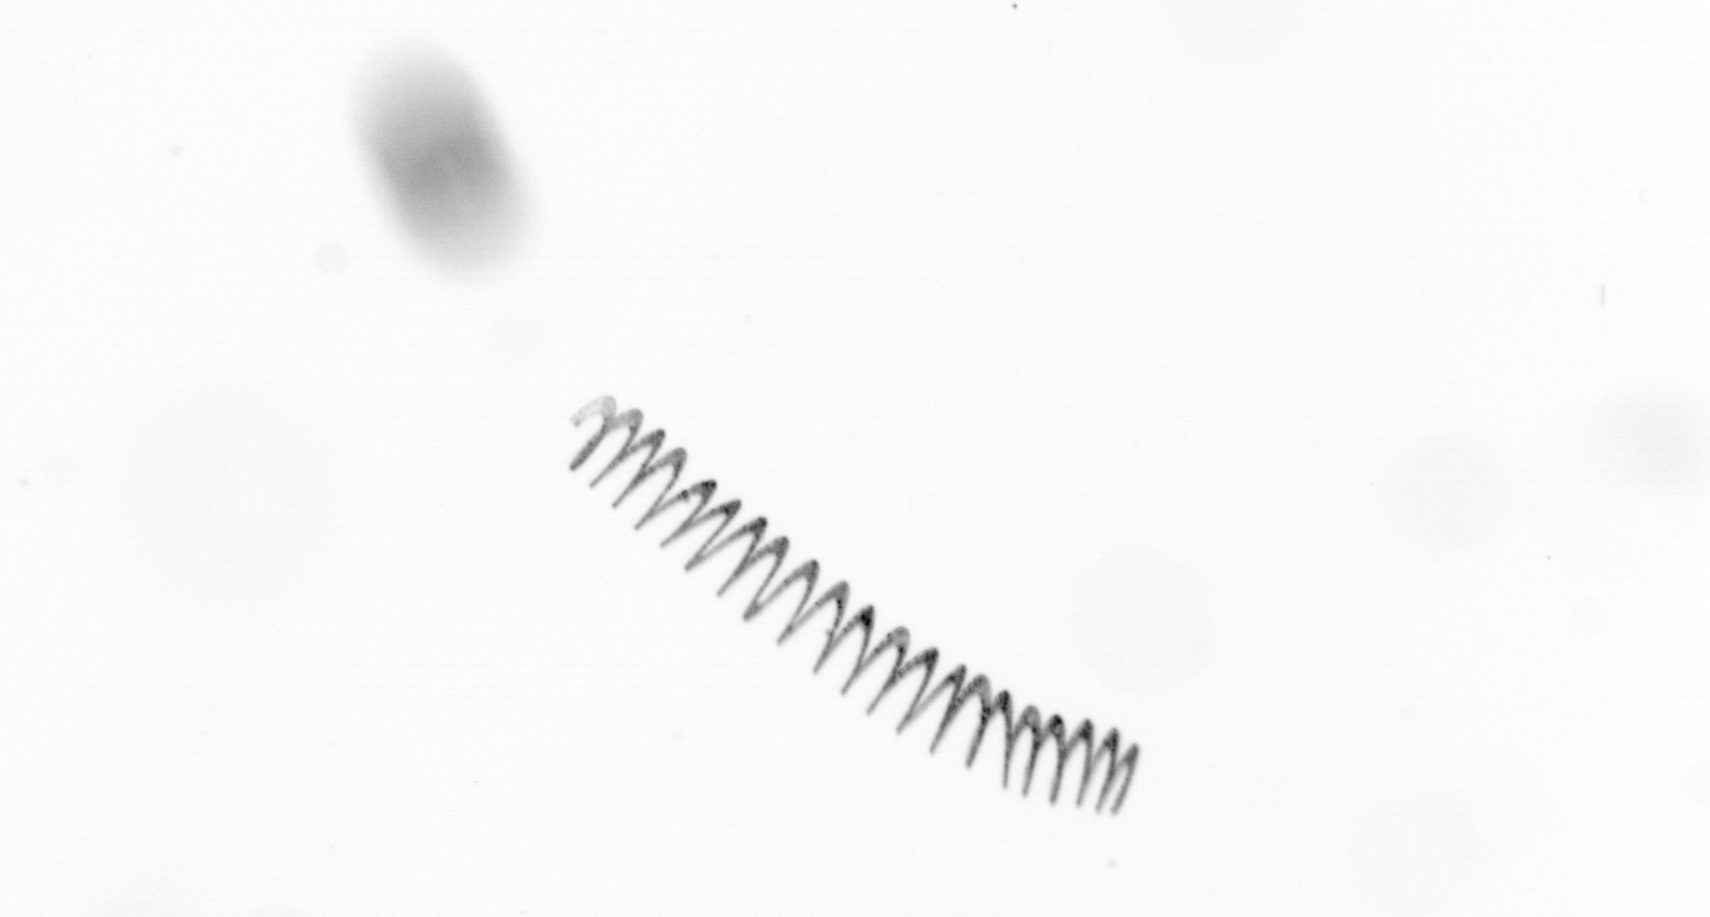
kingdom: Chromista
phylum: Ochrophyta
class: Bacillariophyceae
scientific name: Bacillariophyceae
